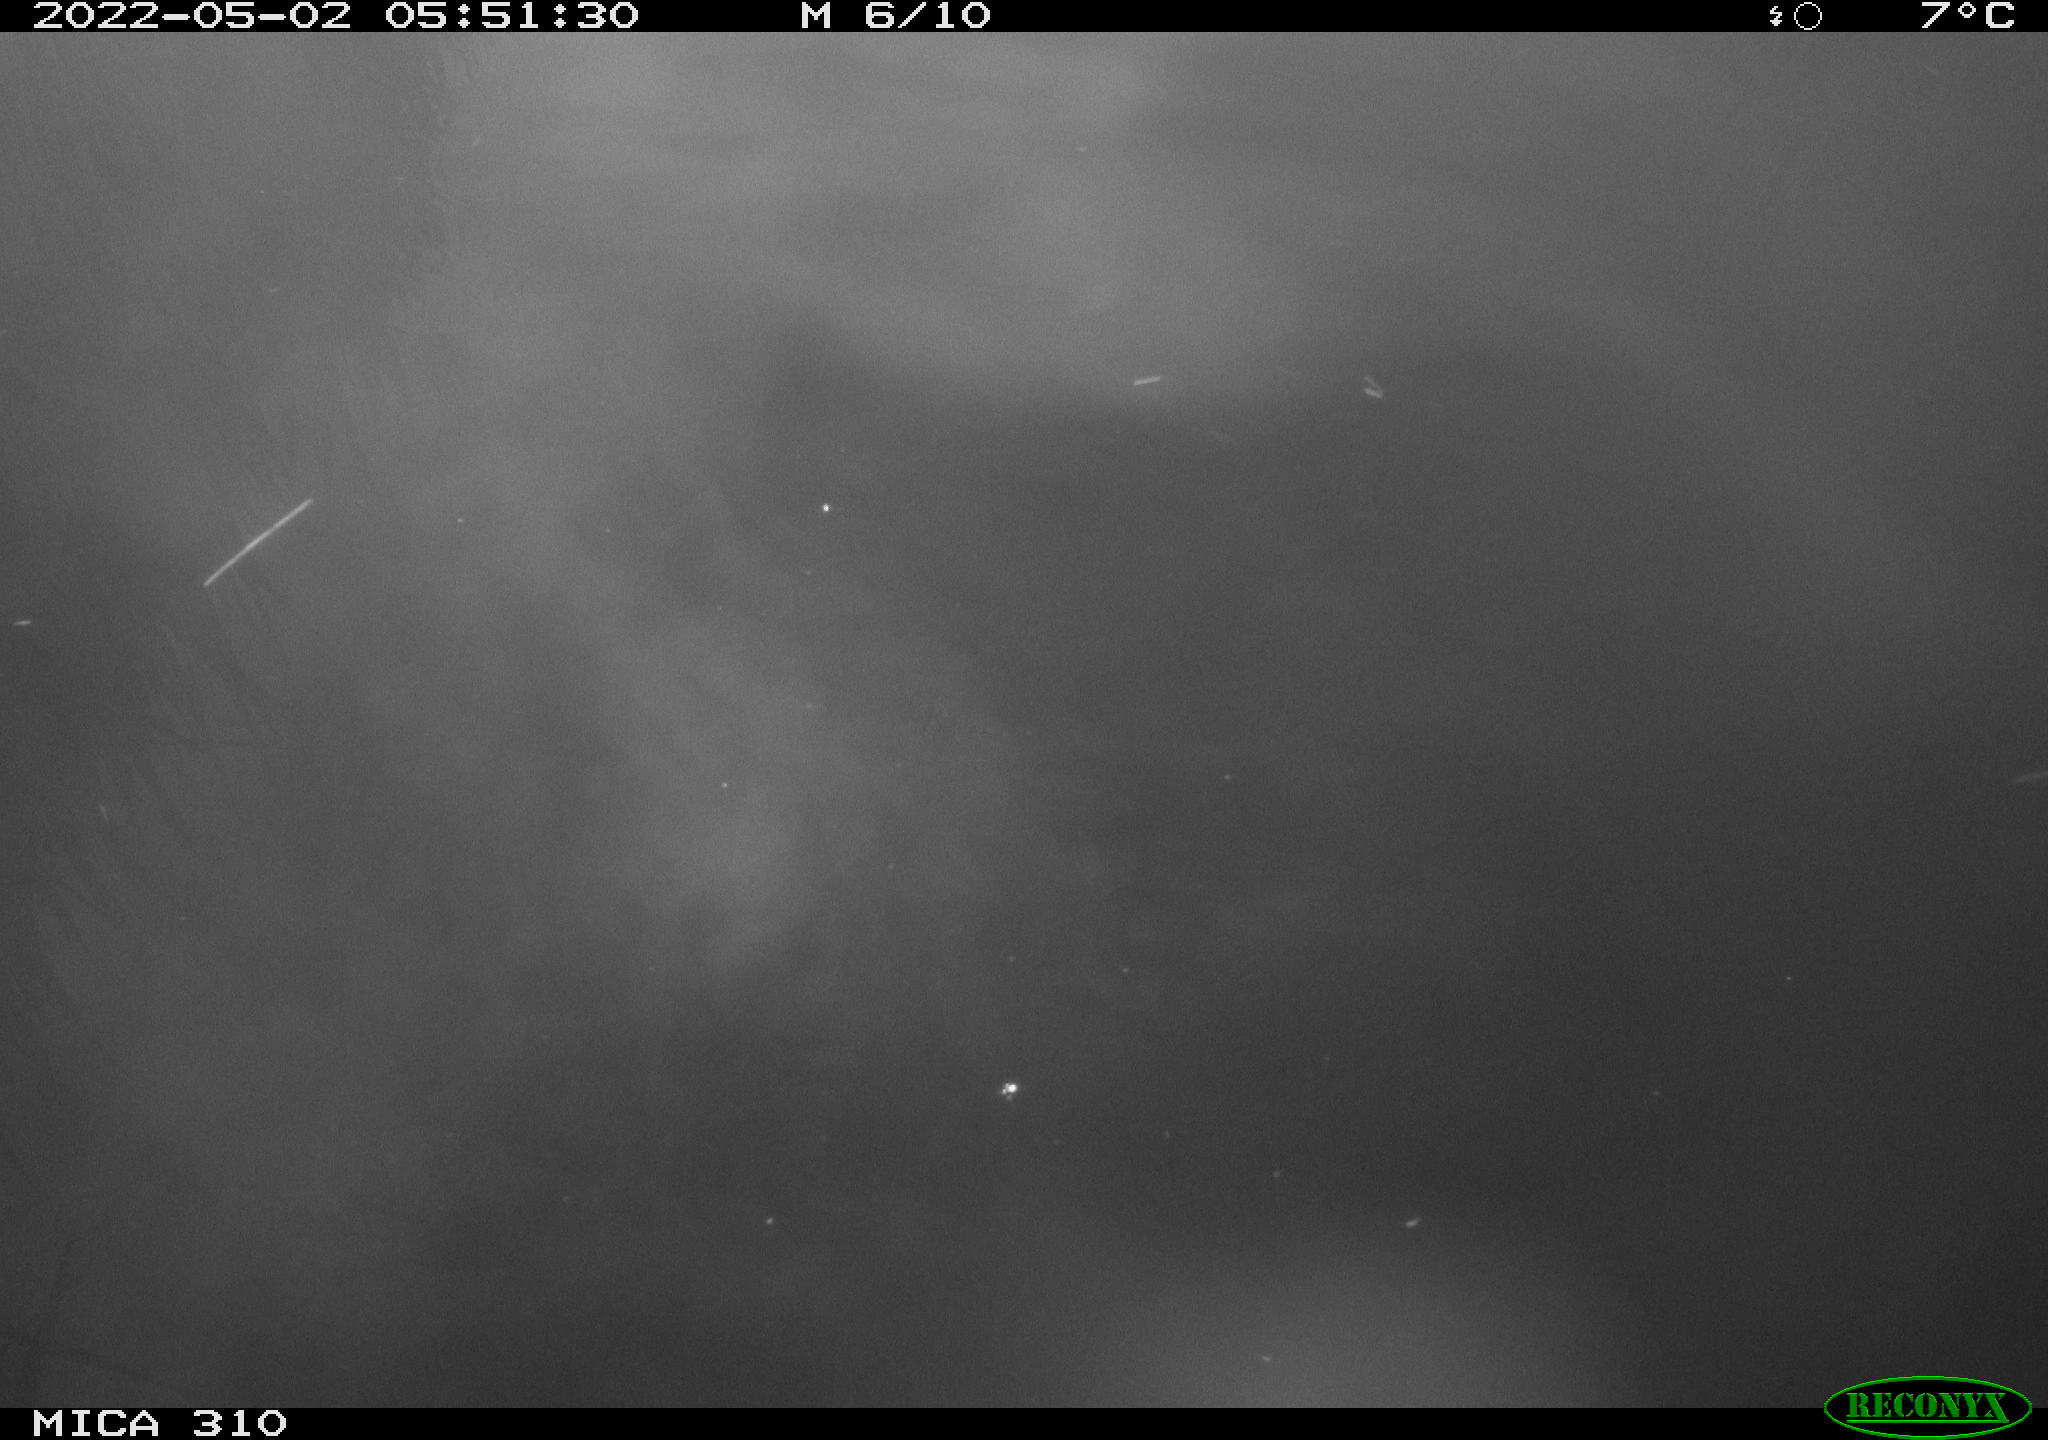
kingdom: Animalia
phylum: Chordata
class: Aves
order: Gruiformes
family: Rallidae
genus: Fulica
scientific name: Fulica atra
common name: Eurasian coot
